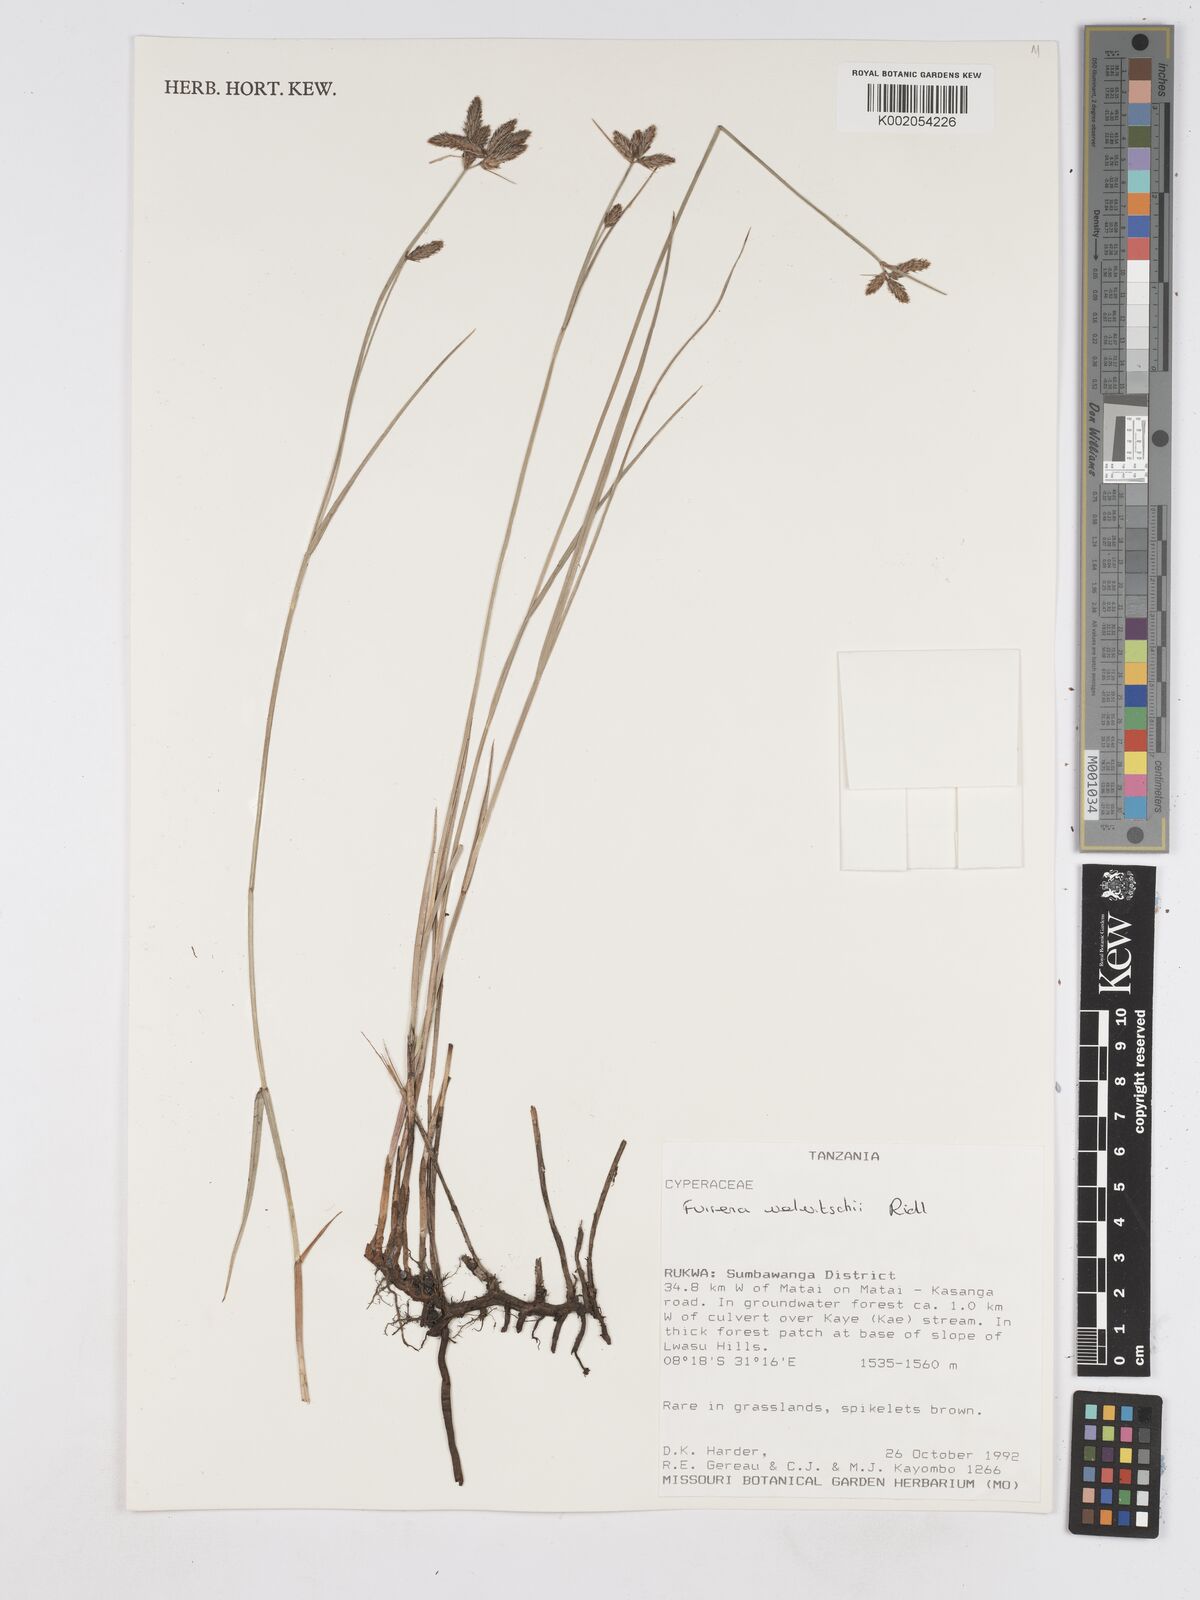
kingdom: Plantae
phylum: Tracheophyta
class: Liliopsida
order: Poales
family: Cyperaceae
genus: Fuirena
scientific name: Fuirena welwitschii
